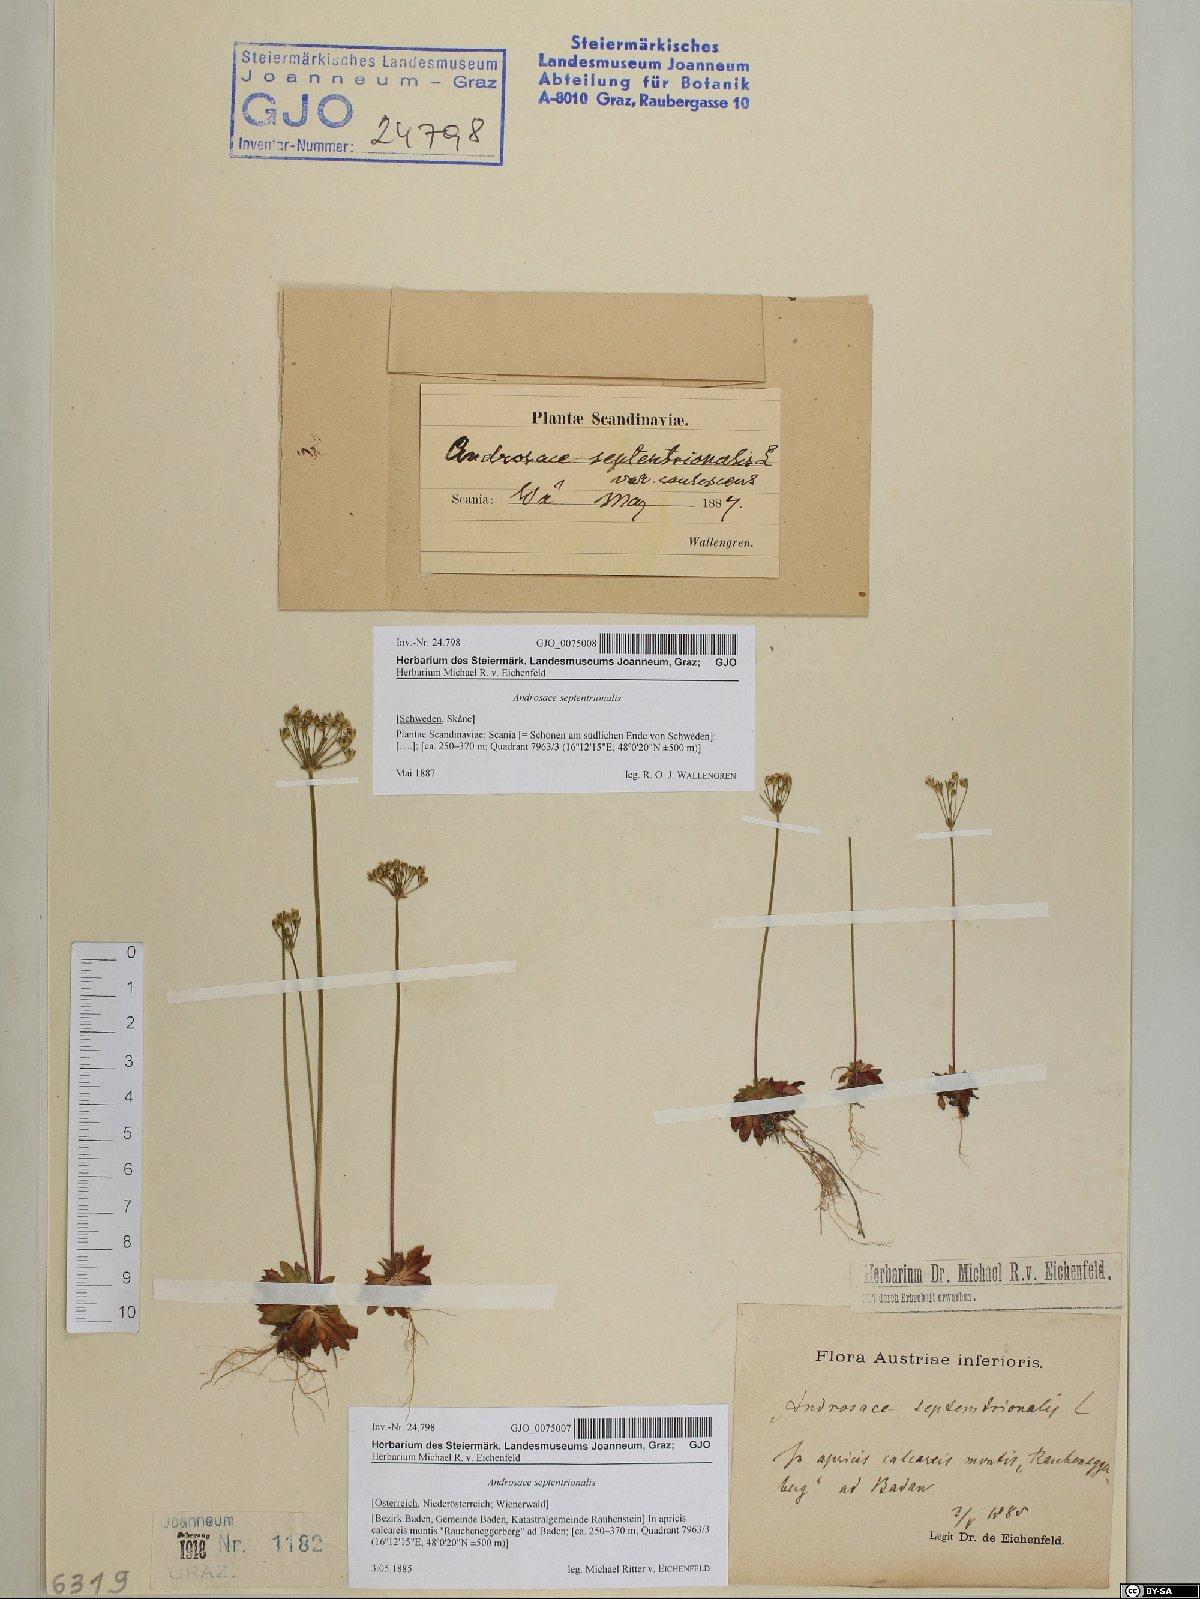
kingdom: Plantae
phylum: Tracheophyta
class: Magnoliopsida
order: Ericales
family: Primulaceae
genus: Androsace
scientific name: Androsace septentrionalis
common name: Hairy northern fairy-candelabra
